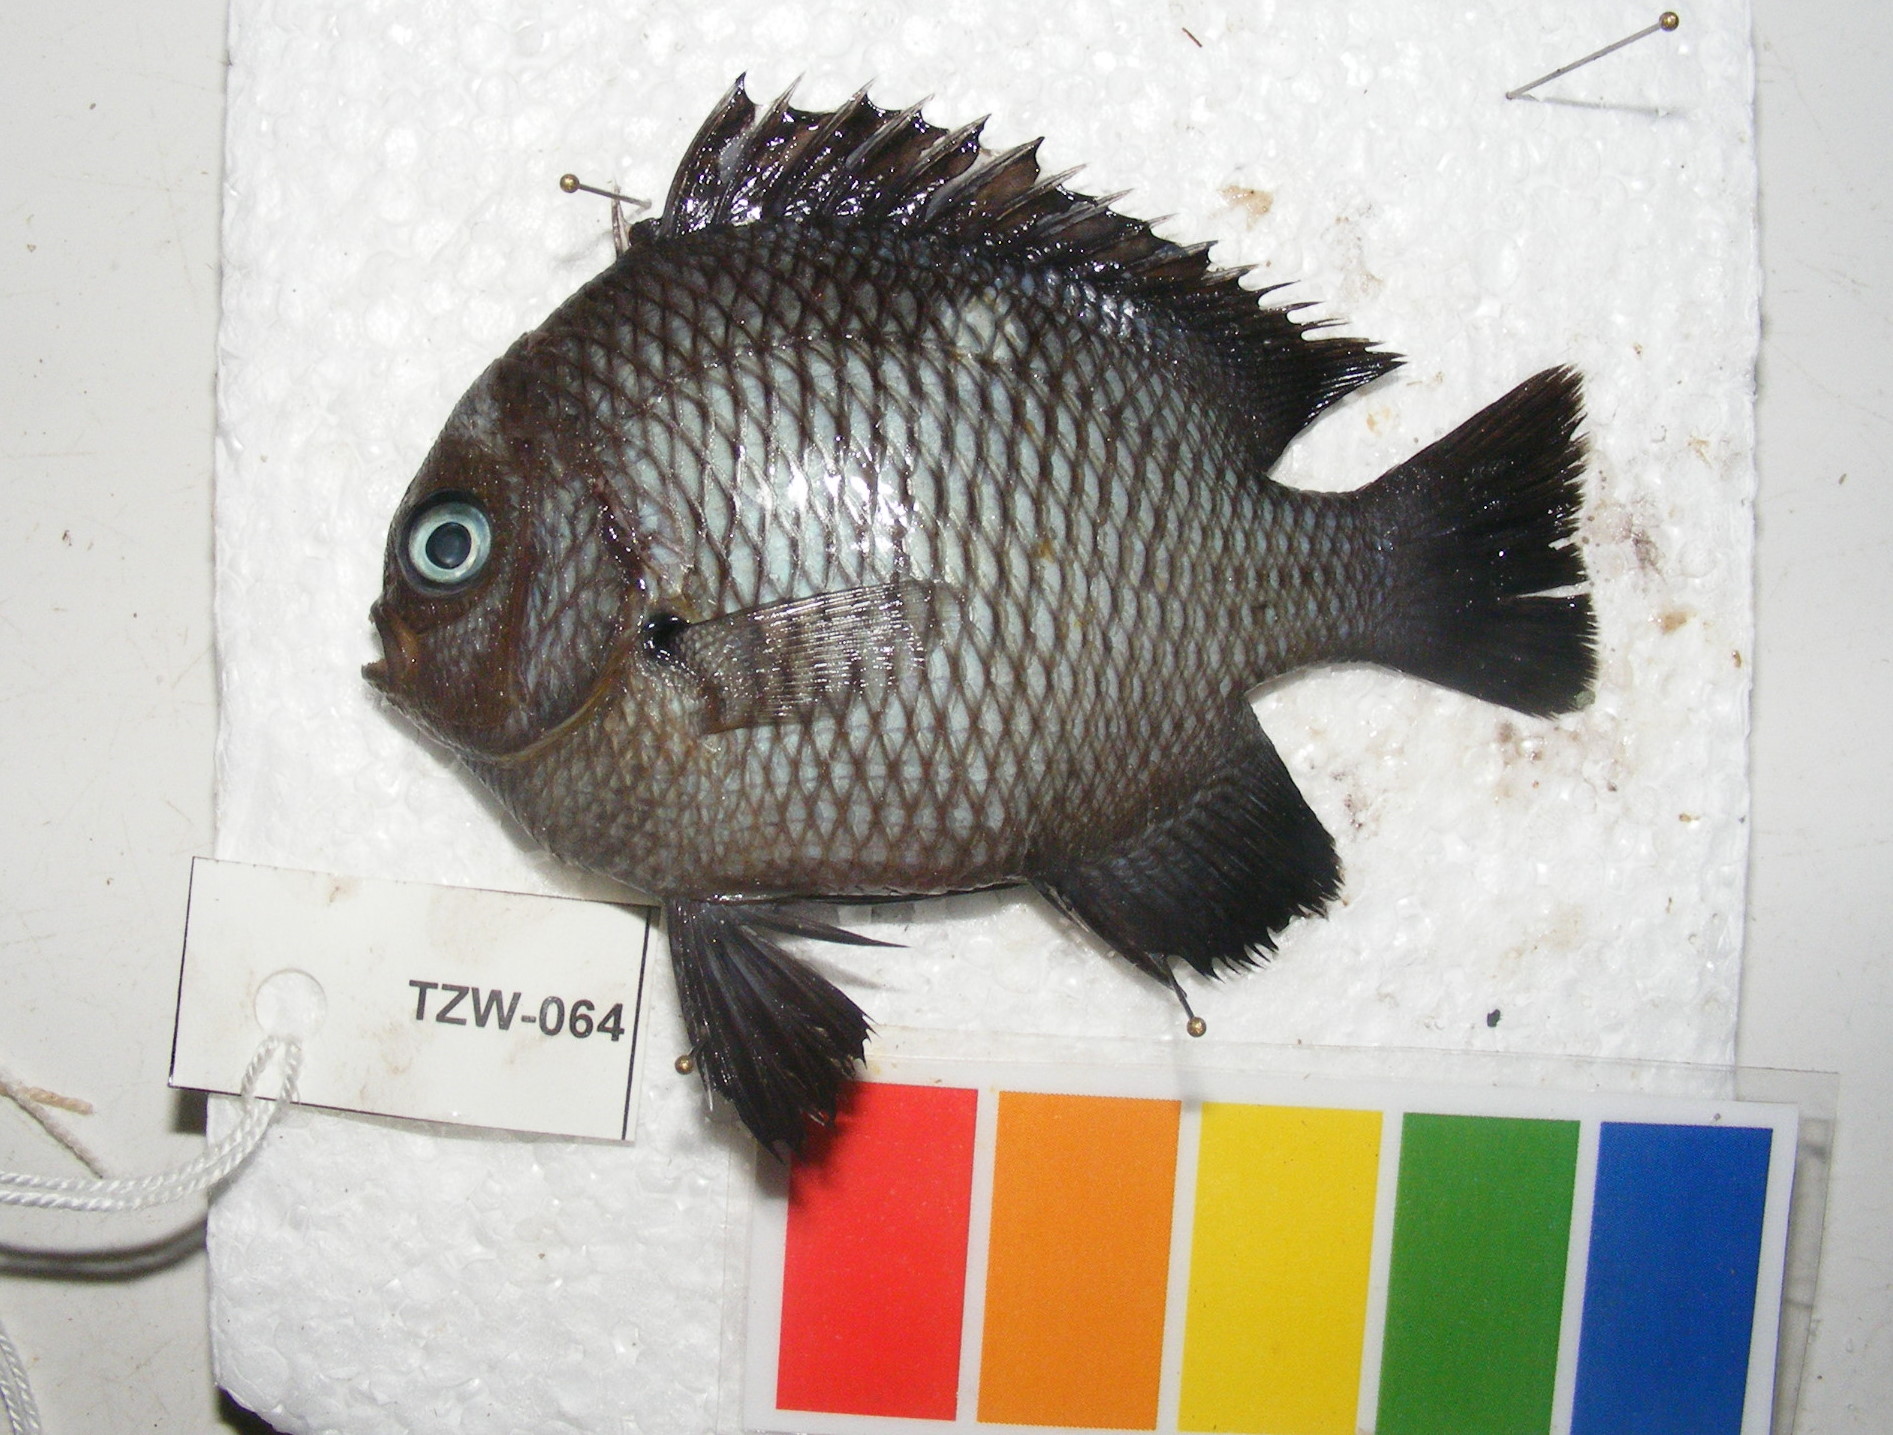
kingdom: Animalia
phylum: Chordata
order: Perciformes
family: Pomacentridae
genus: Dascyllus
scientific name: Dascyllus trimaculatus
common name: Threespot dascyllus
